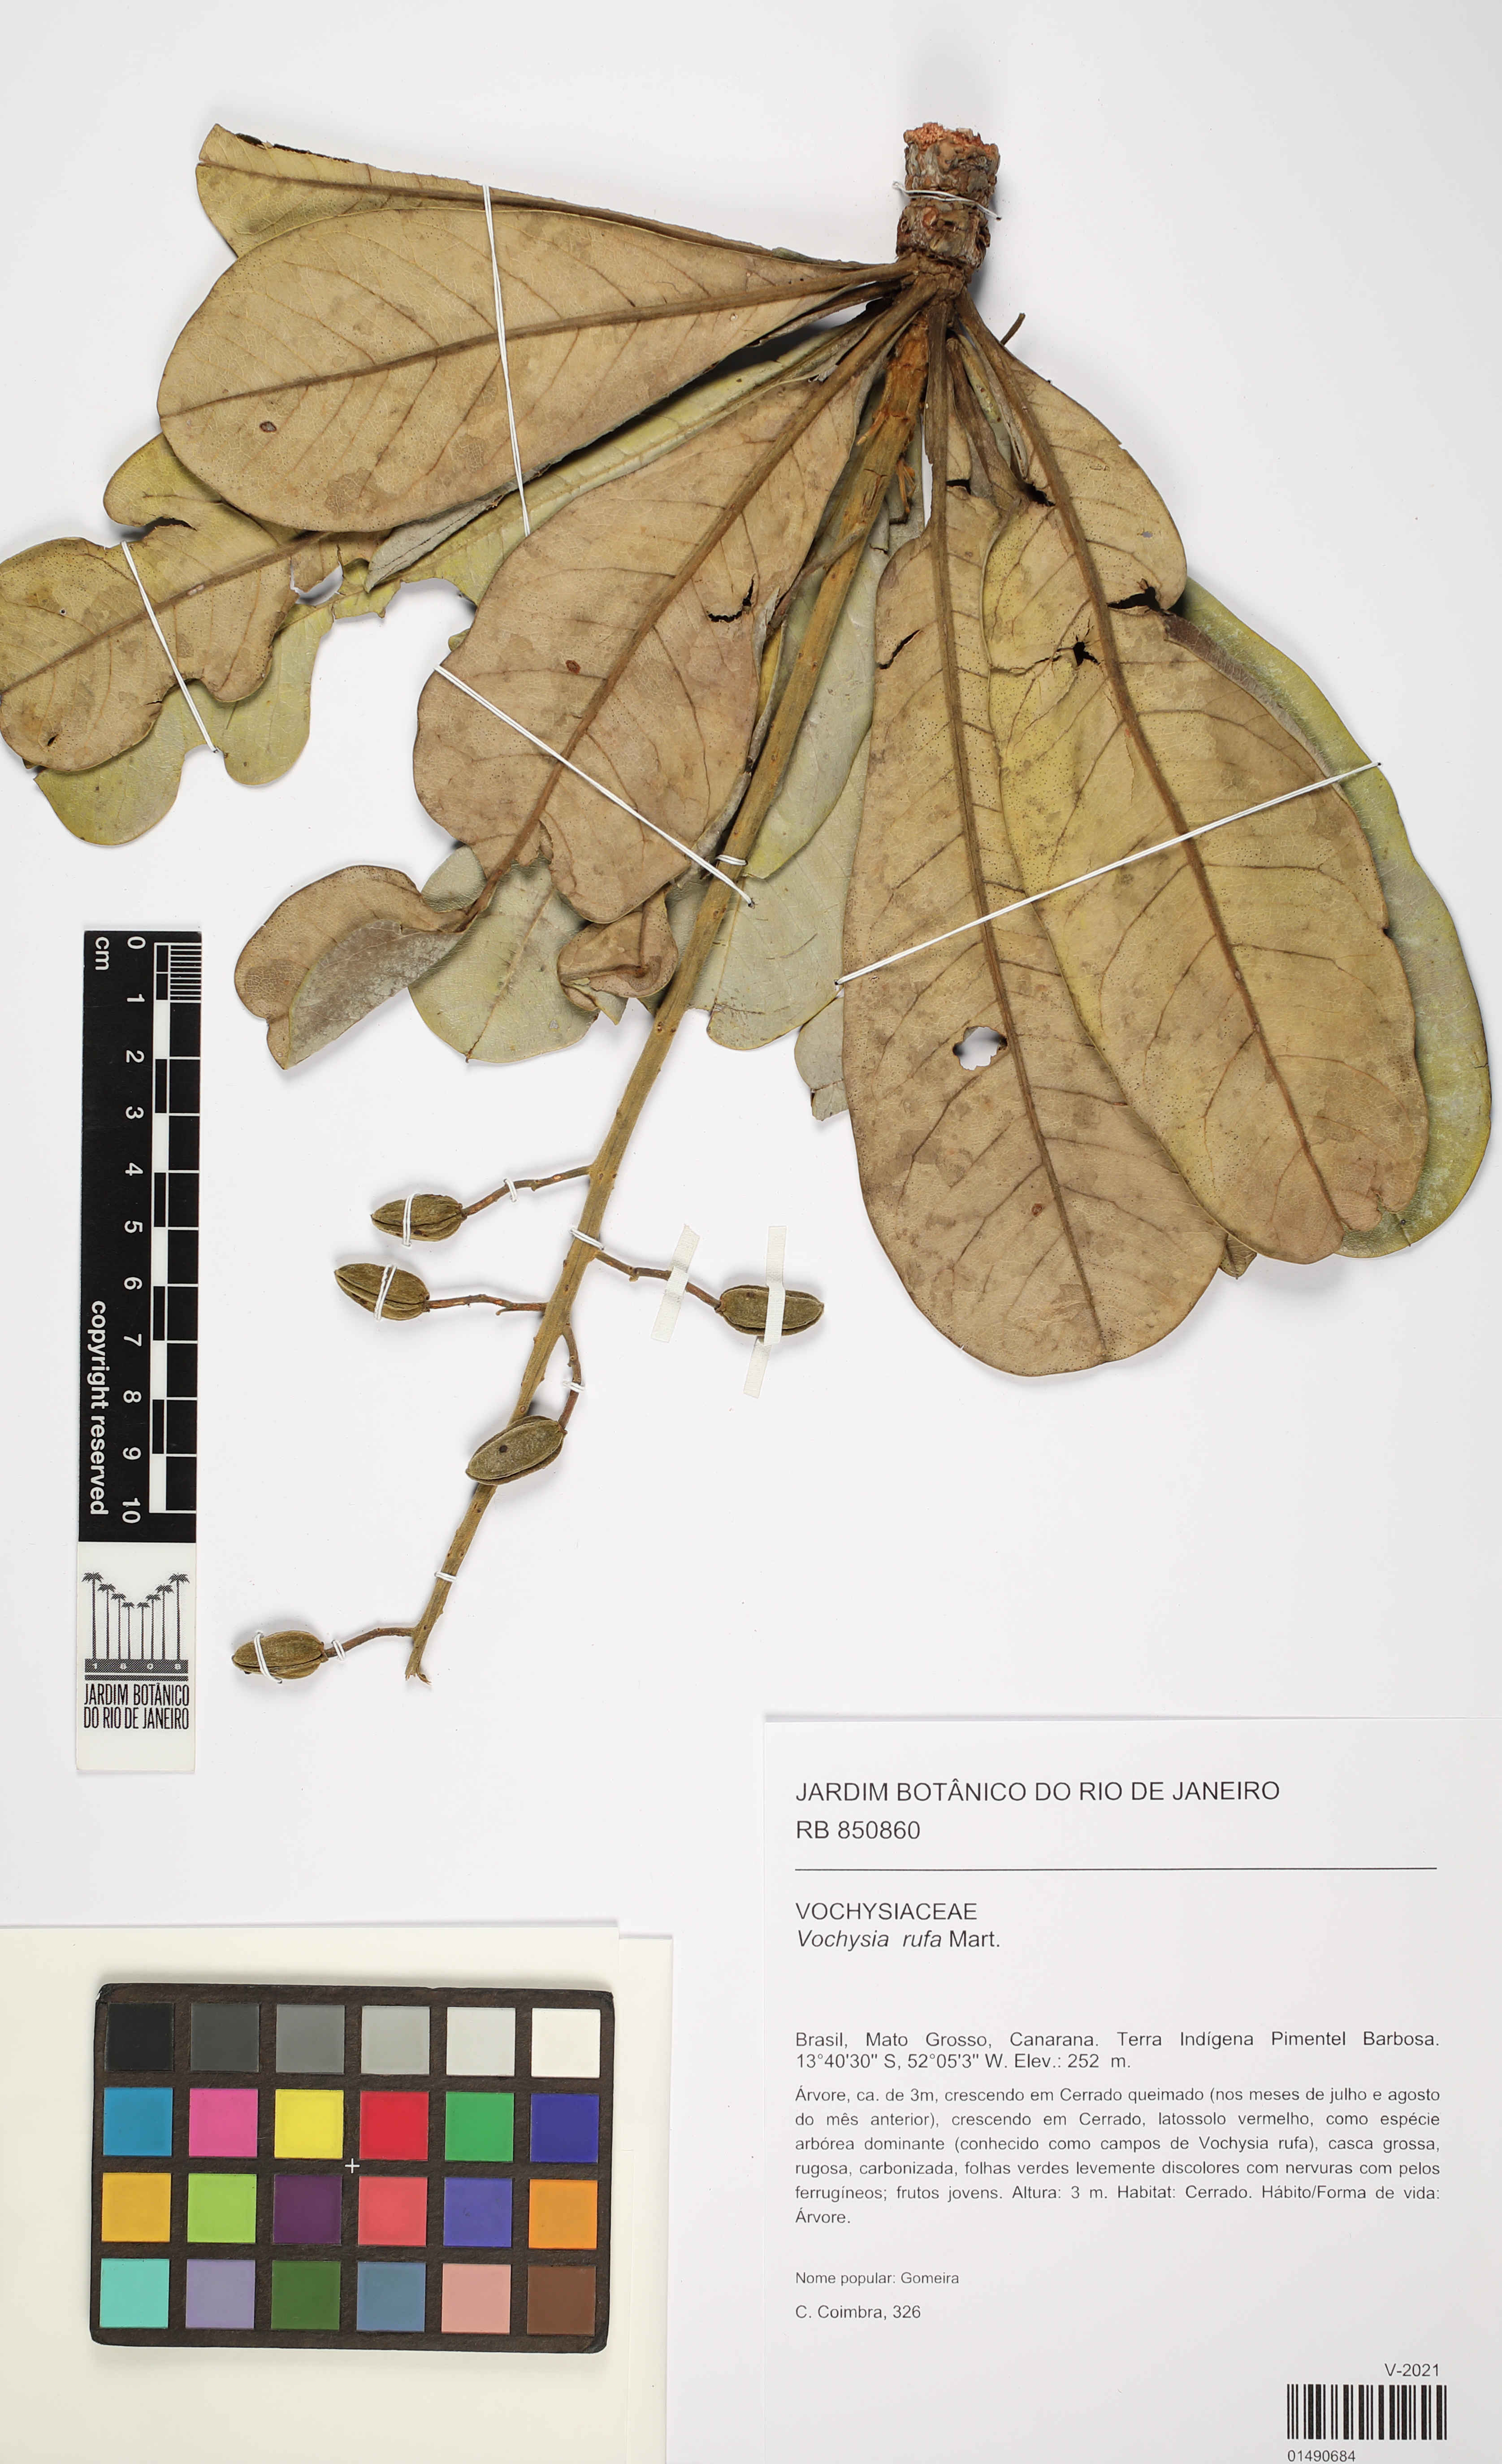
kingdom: Plantae
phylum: Tracheophyta
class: Magnoliopsida
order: Myrtales
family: Vochysiaceae
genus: Vochysia
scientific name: Vochysia rufa
